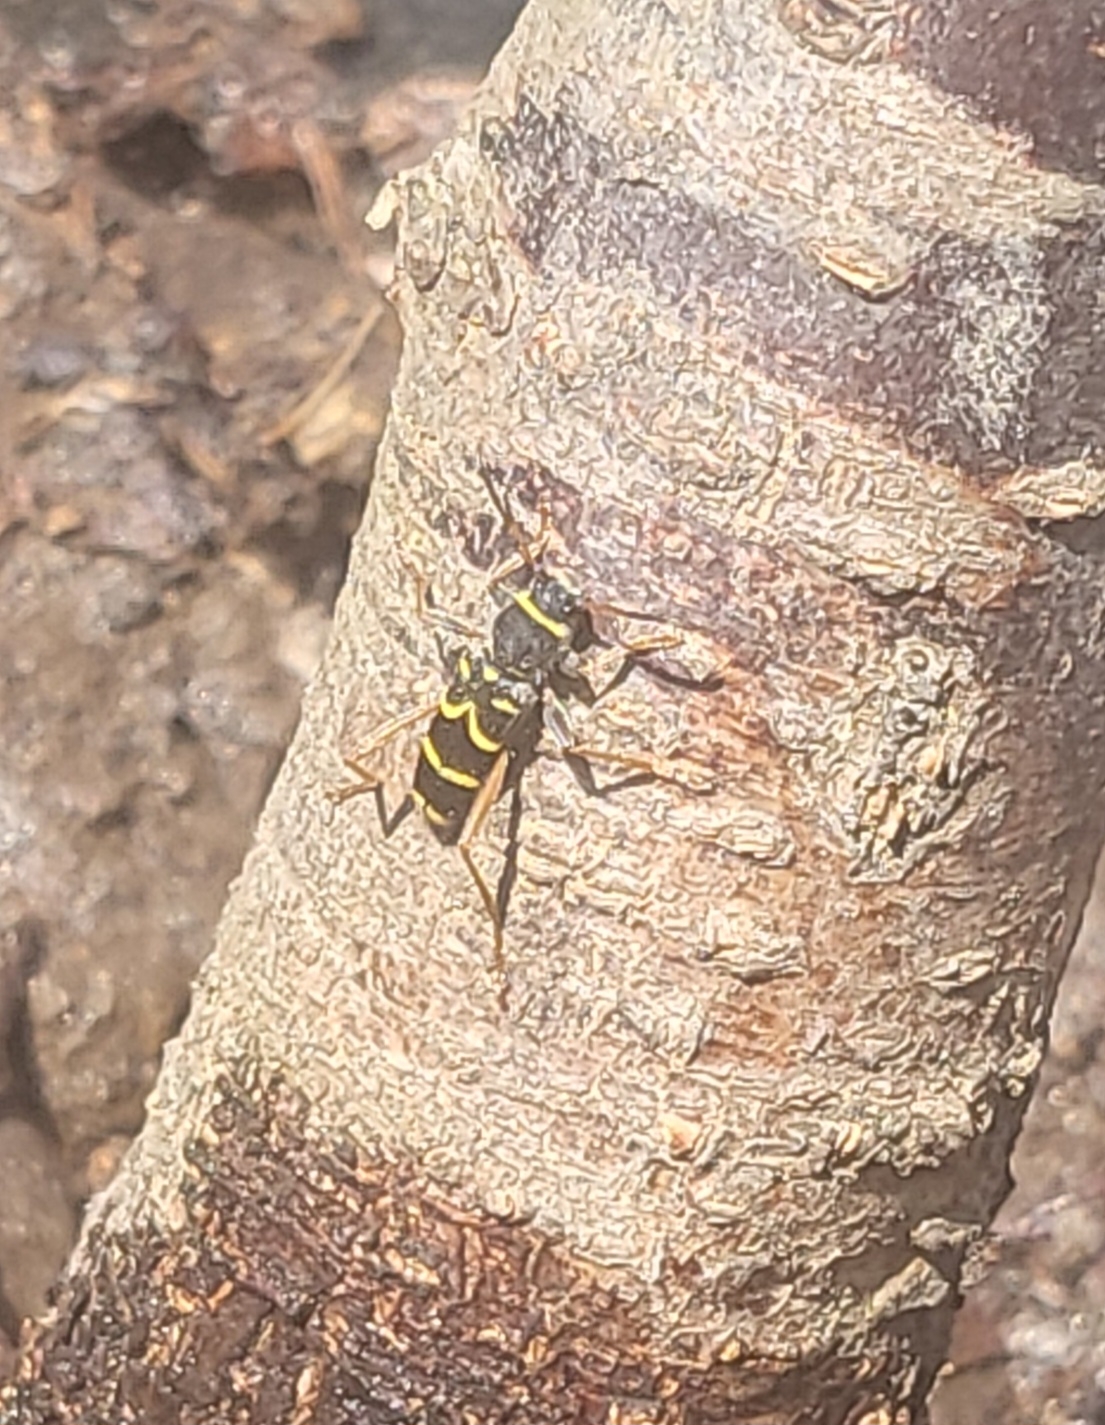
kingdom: Animalia
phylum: Arthropoda
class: Insecta
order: Coleoptera
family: Cerambycidae
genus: Clytus
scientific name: Clytus arietis
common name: Lille hvepsebuk
